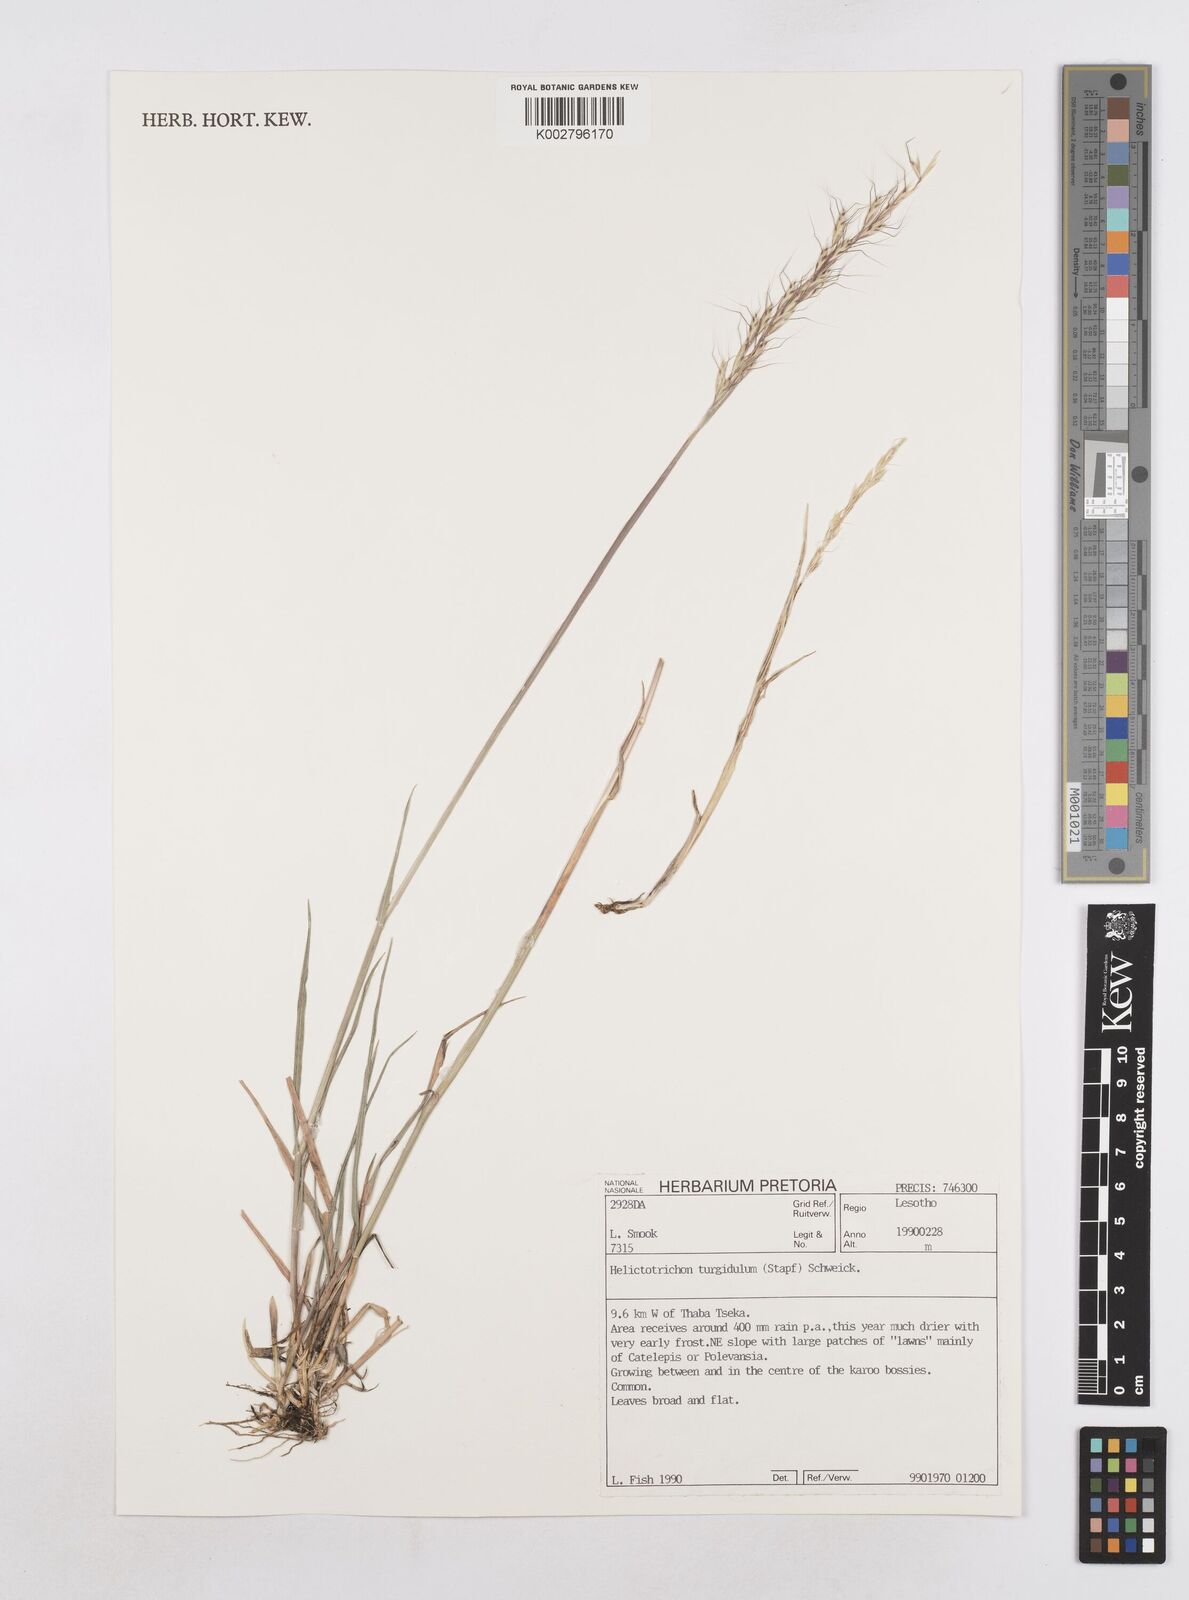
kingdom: Plantae
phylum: Tracheophyta
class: Liliopsida
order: Poales
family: Poaceae
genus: Trisetopsis
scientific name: Trisetopsis imberbis
